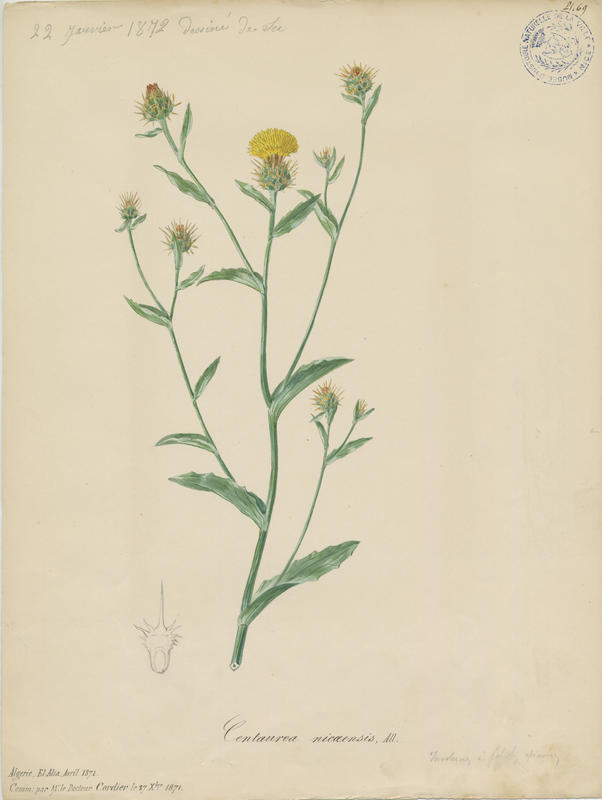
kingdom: Plantae
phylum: Tracheophyta
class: Magnoliopsida
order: Asterales
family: Asteraceae
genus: Centaurea
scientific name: Centaurea sicula
